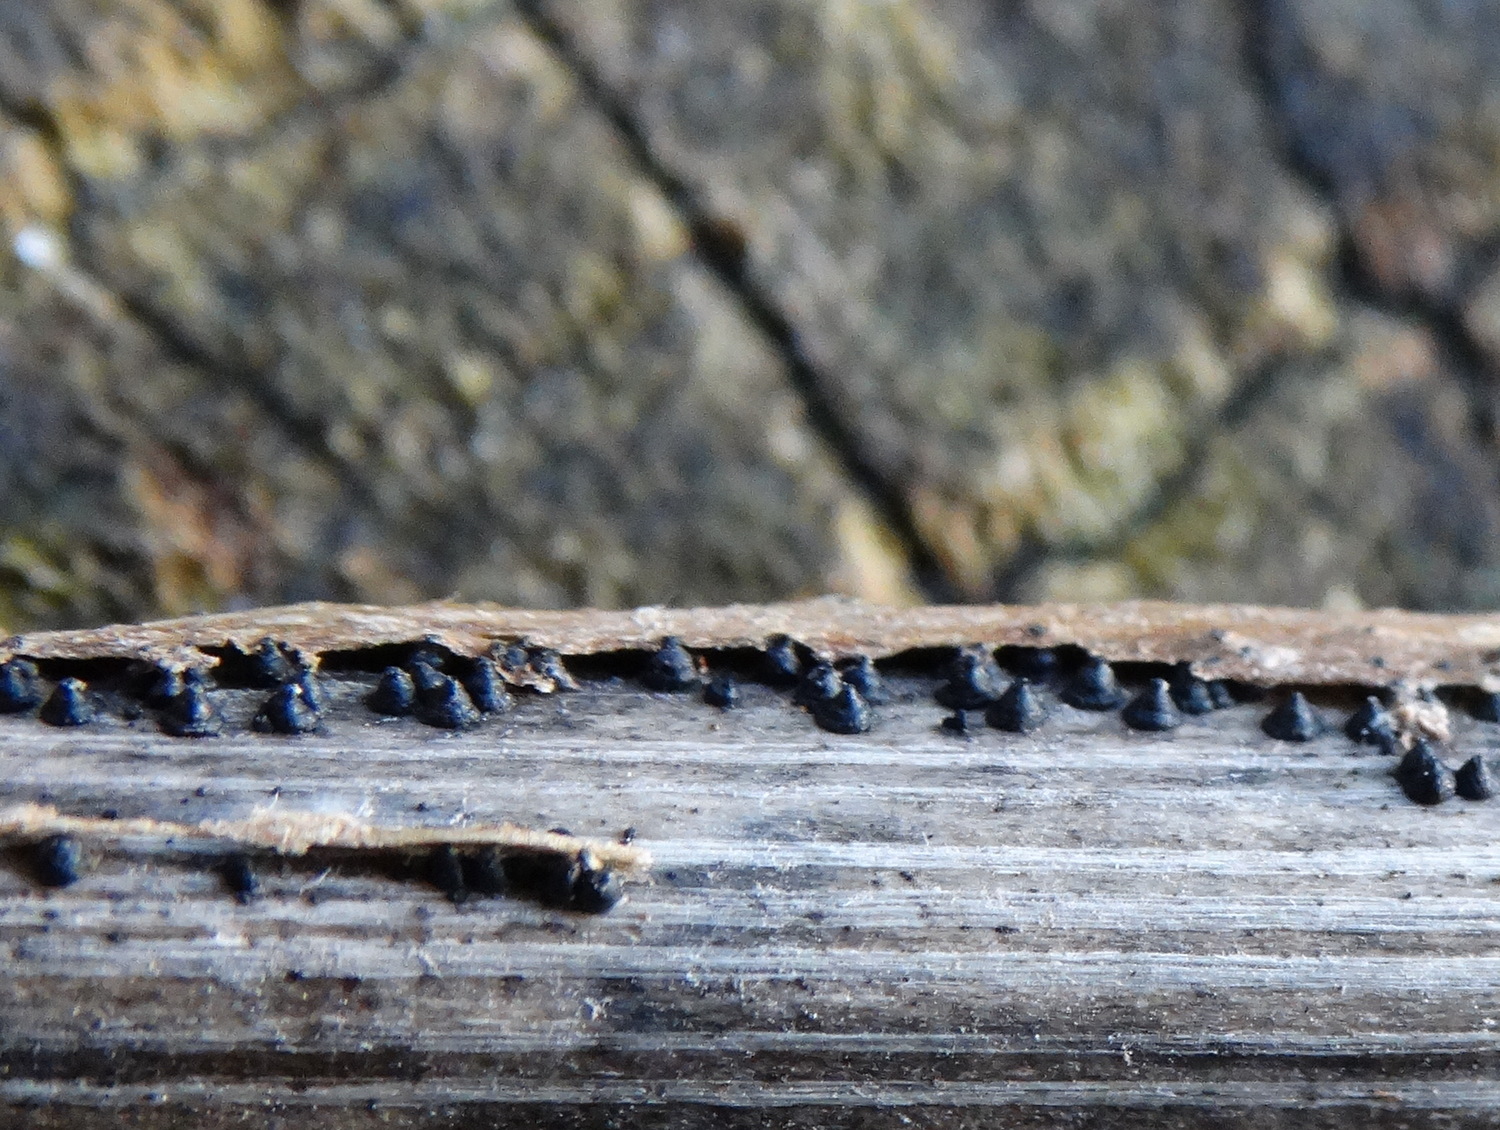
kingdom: Fungi
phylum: Ascomycota
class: Dothideomycetes
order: Pleosporales
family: Leptosphaeriaceae
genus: Leptosphaeria
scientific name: Leptosphaeria
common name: kulkegle
